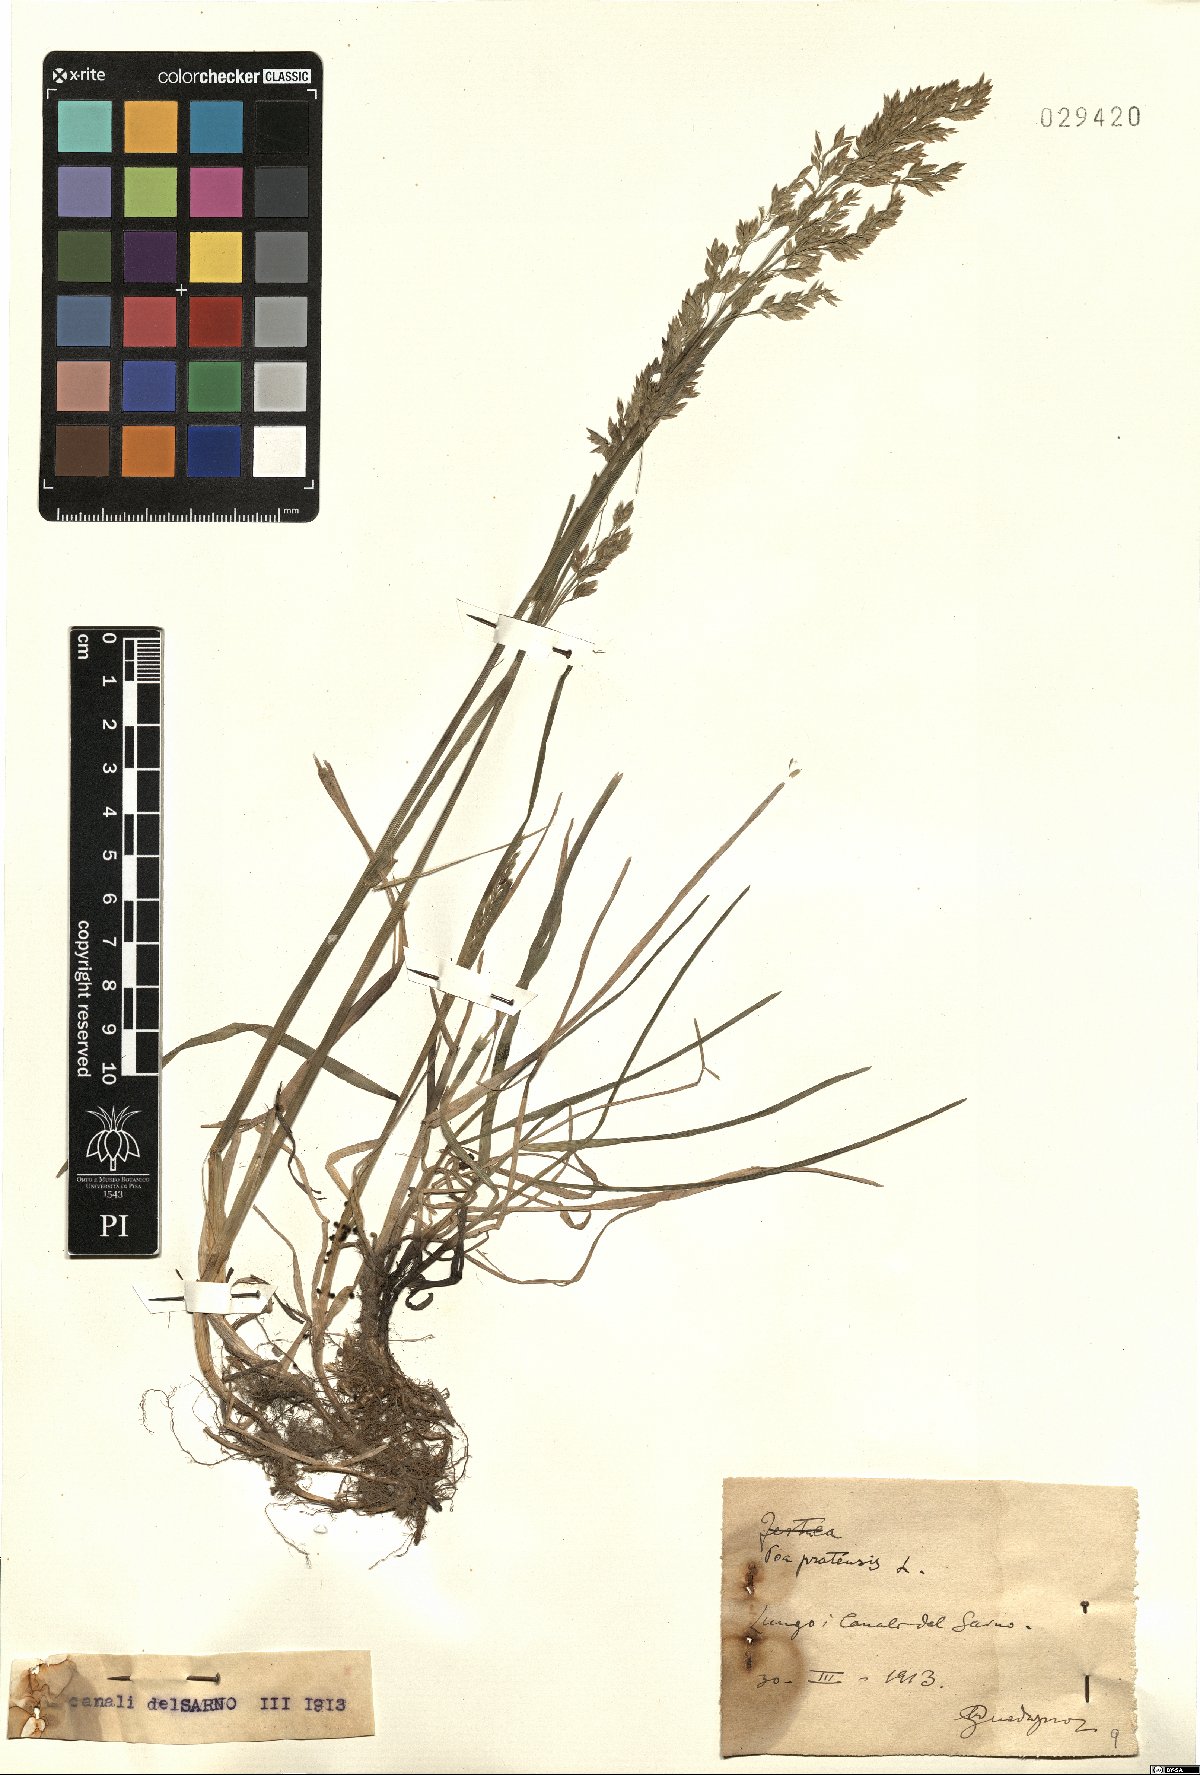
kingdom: Plantae
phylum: Tracheophyta
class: Liliopsida
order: Poales
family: Poaceae
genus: Poa
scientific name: Poa pratensis
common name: Kentucky bluegrass
